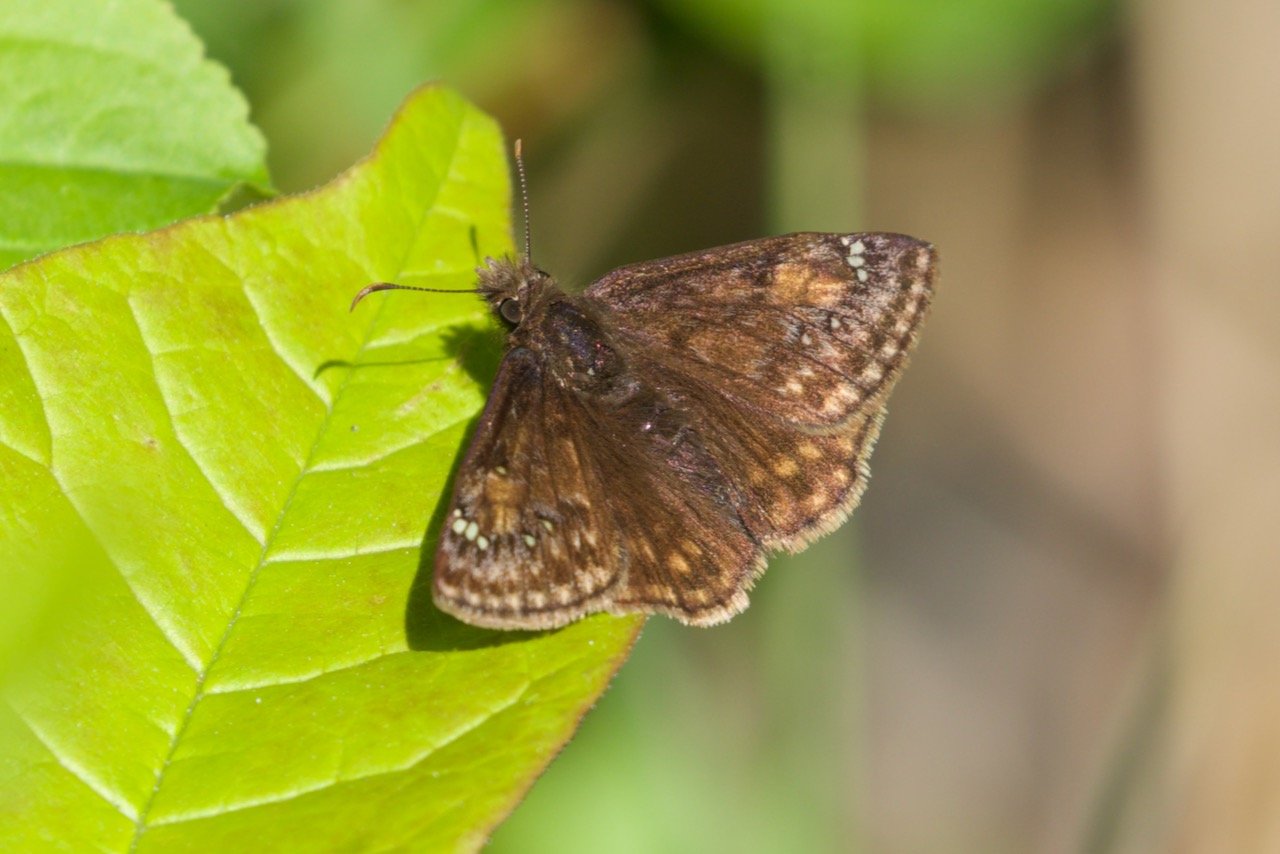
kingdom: Animalia
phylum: Arthropoda
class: Insecta
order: Lepidoptera
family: Hesperiidae
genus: Erynnis
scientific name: Erynnis icelus
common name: Dreamy Duskywing
